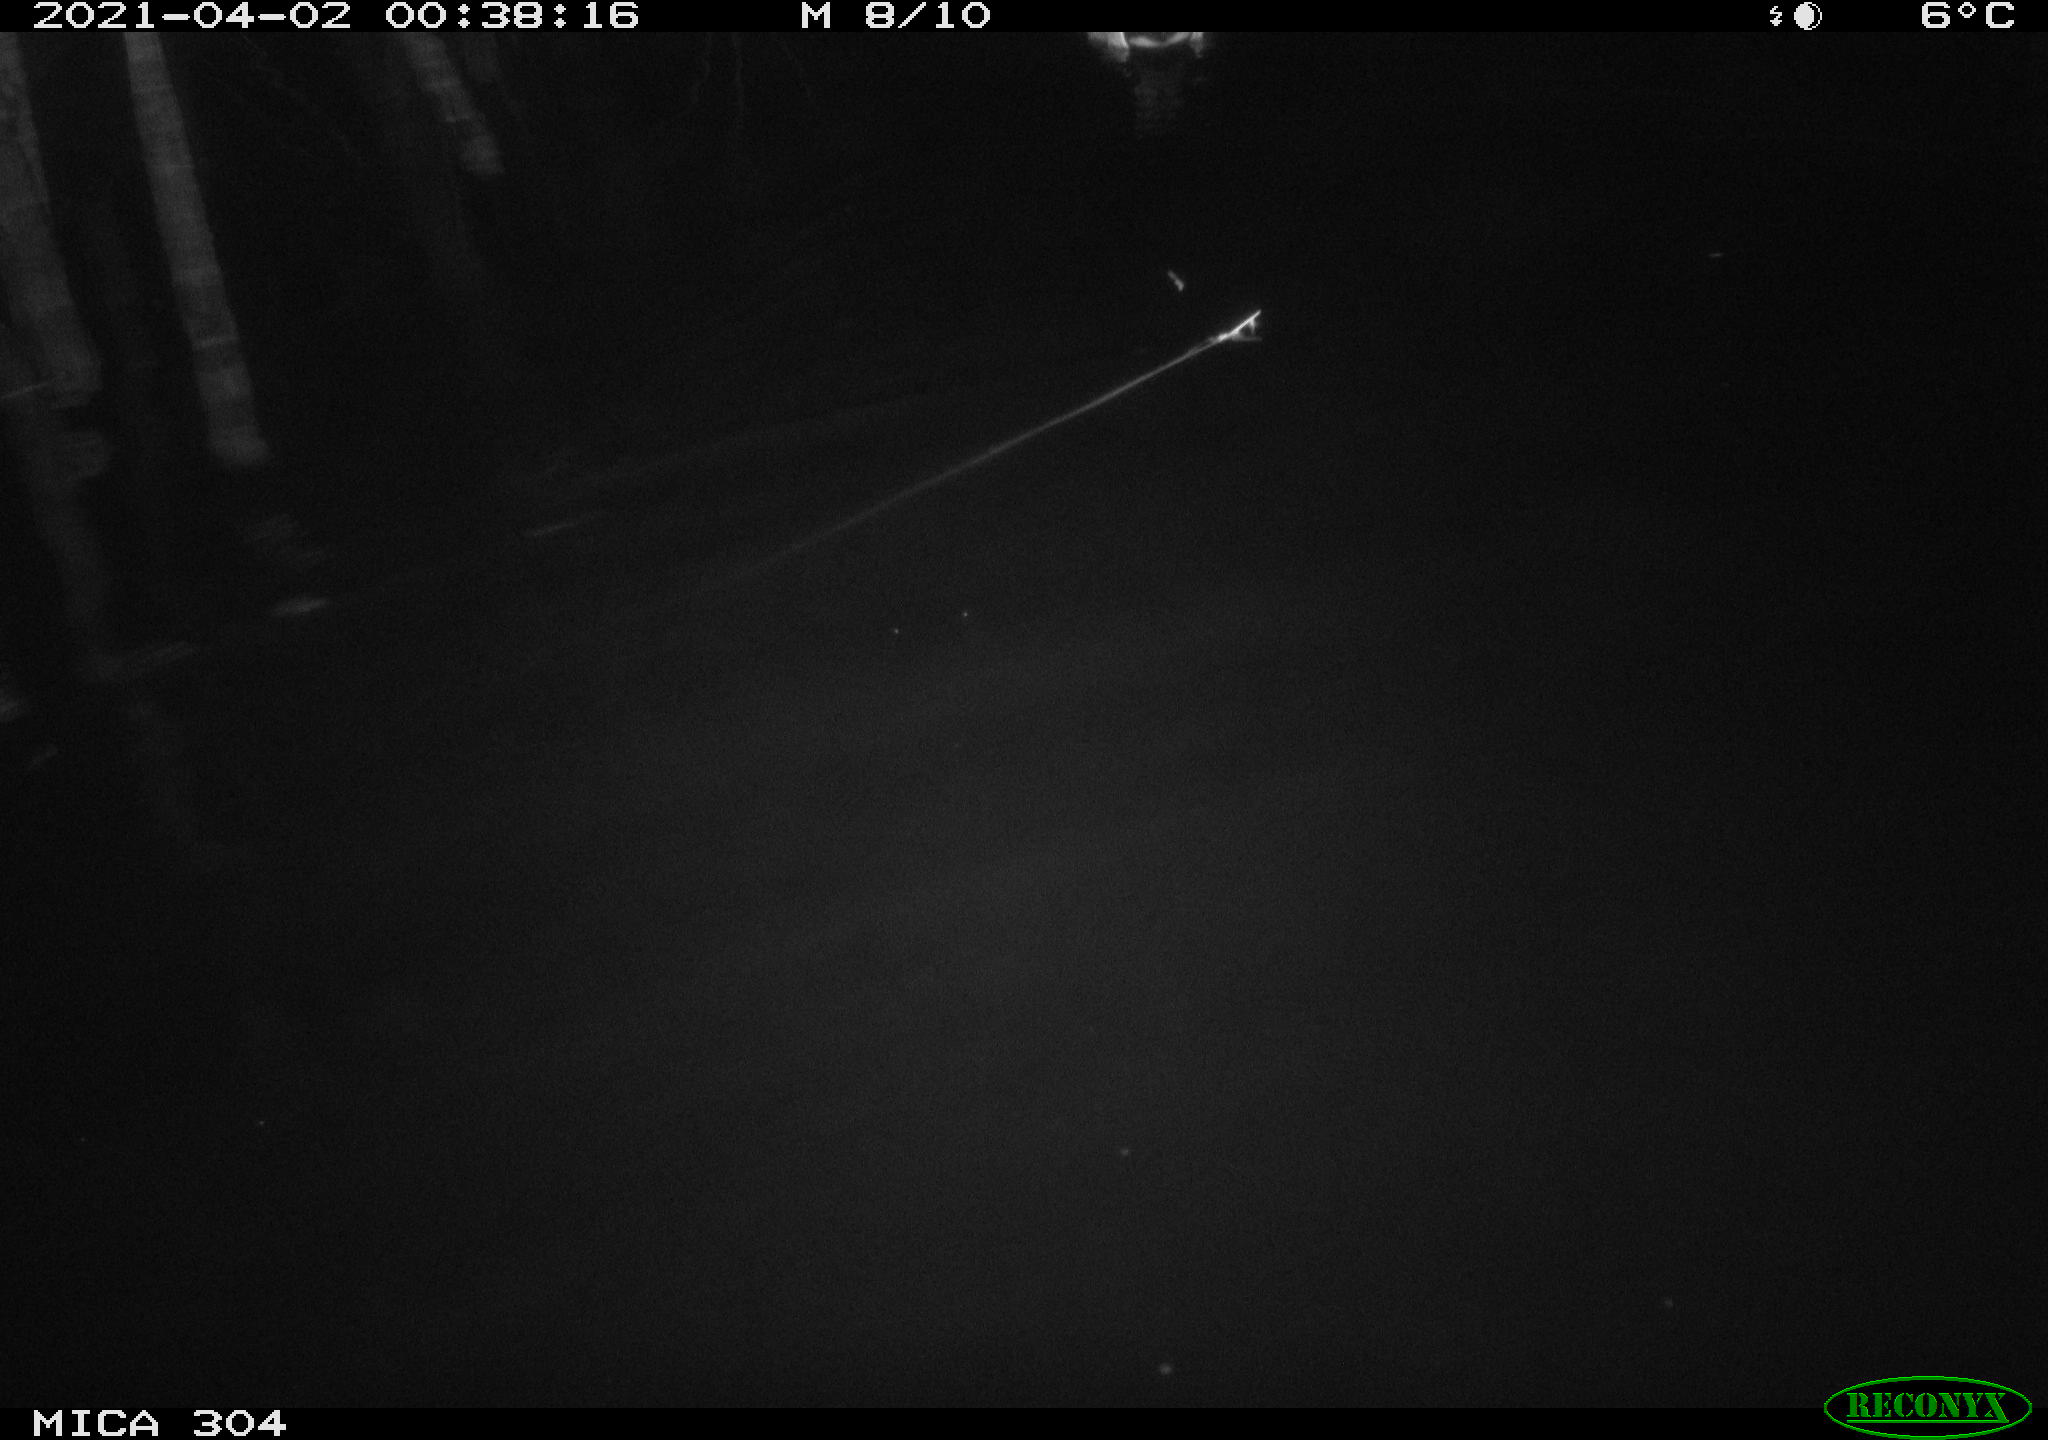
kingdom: Animalia
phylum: Chordata
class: Aves
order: Anseriformes
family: Anatidae
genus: Anas
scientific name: Anas
